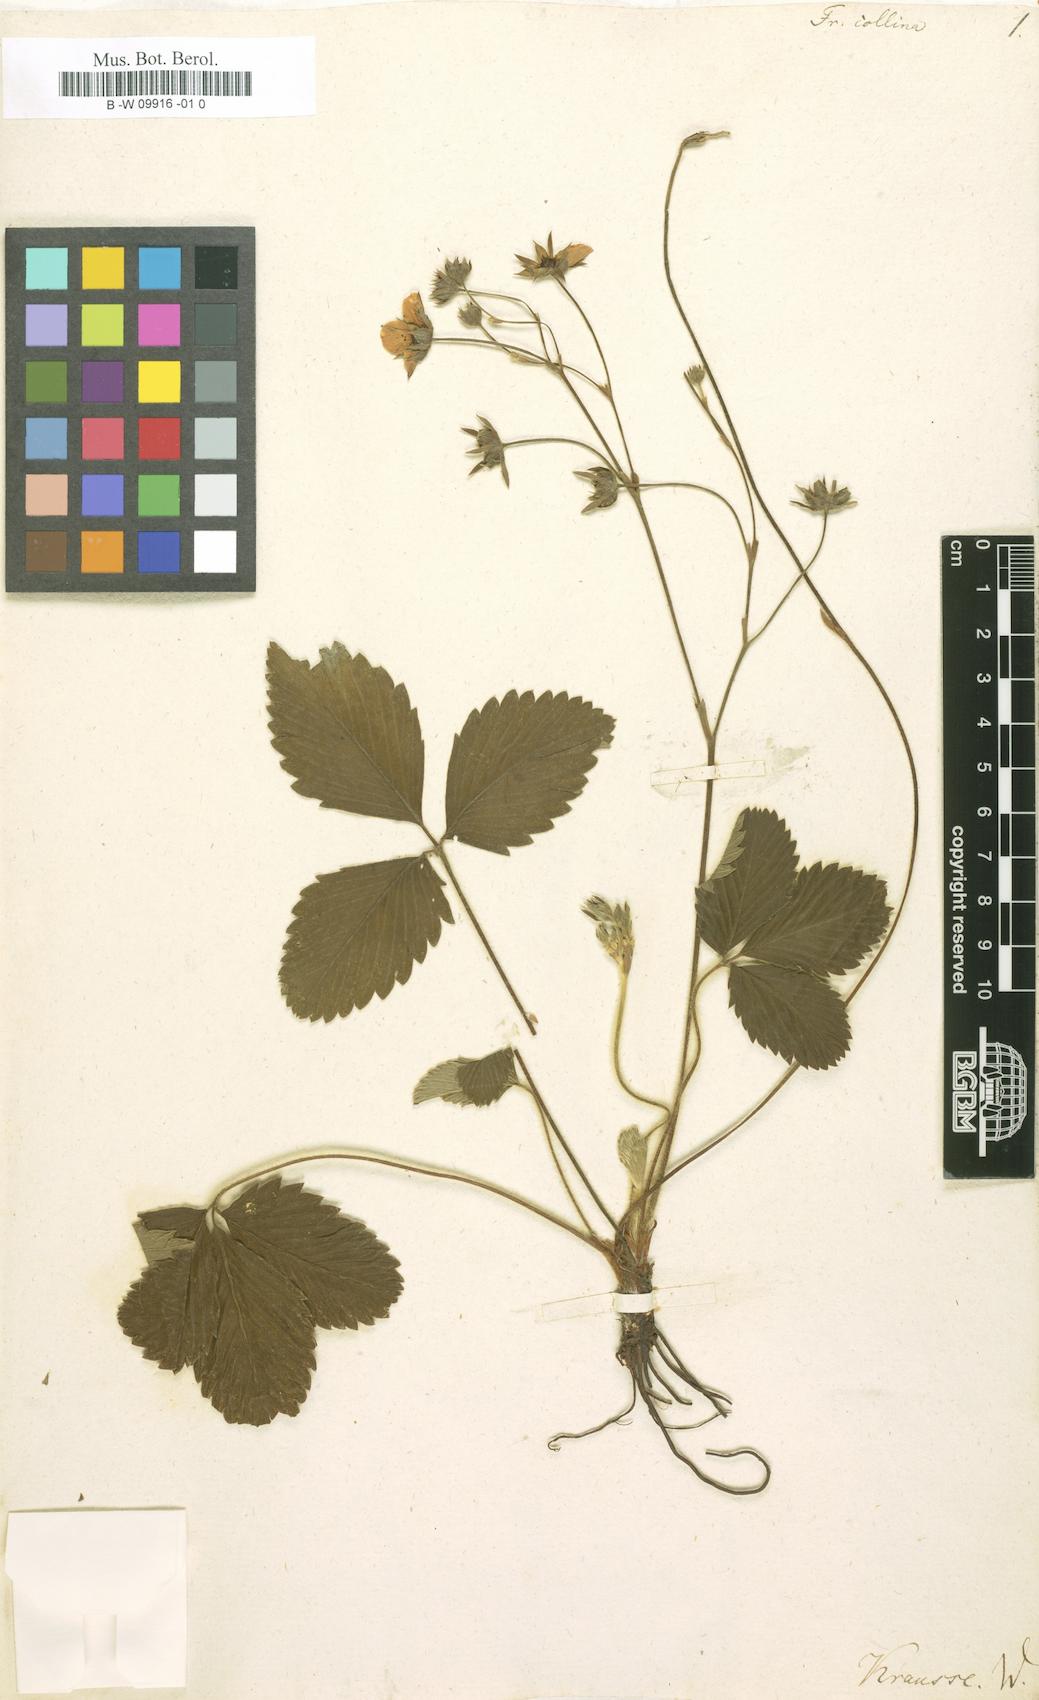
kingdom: Plantae
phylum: Tracheophyta
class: Magnoliopsida
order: Rosales
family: Rosaceae
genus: Fragaria
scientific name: Fragaria viridis
